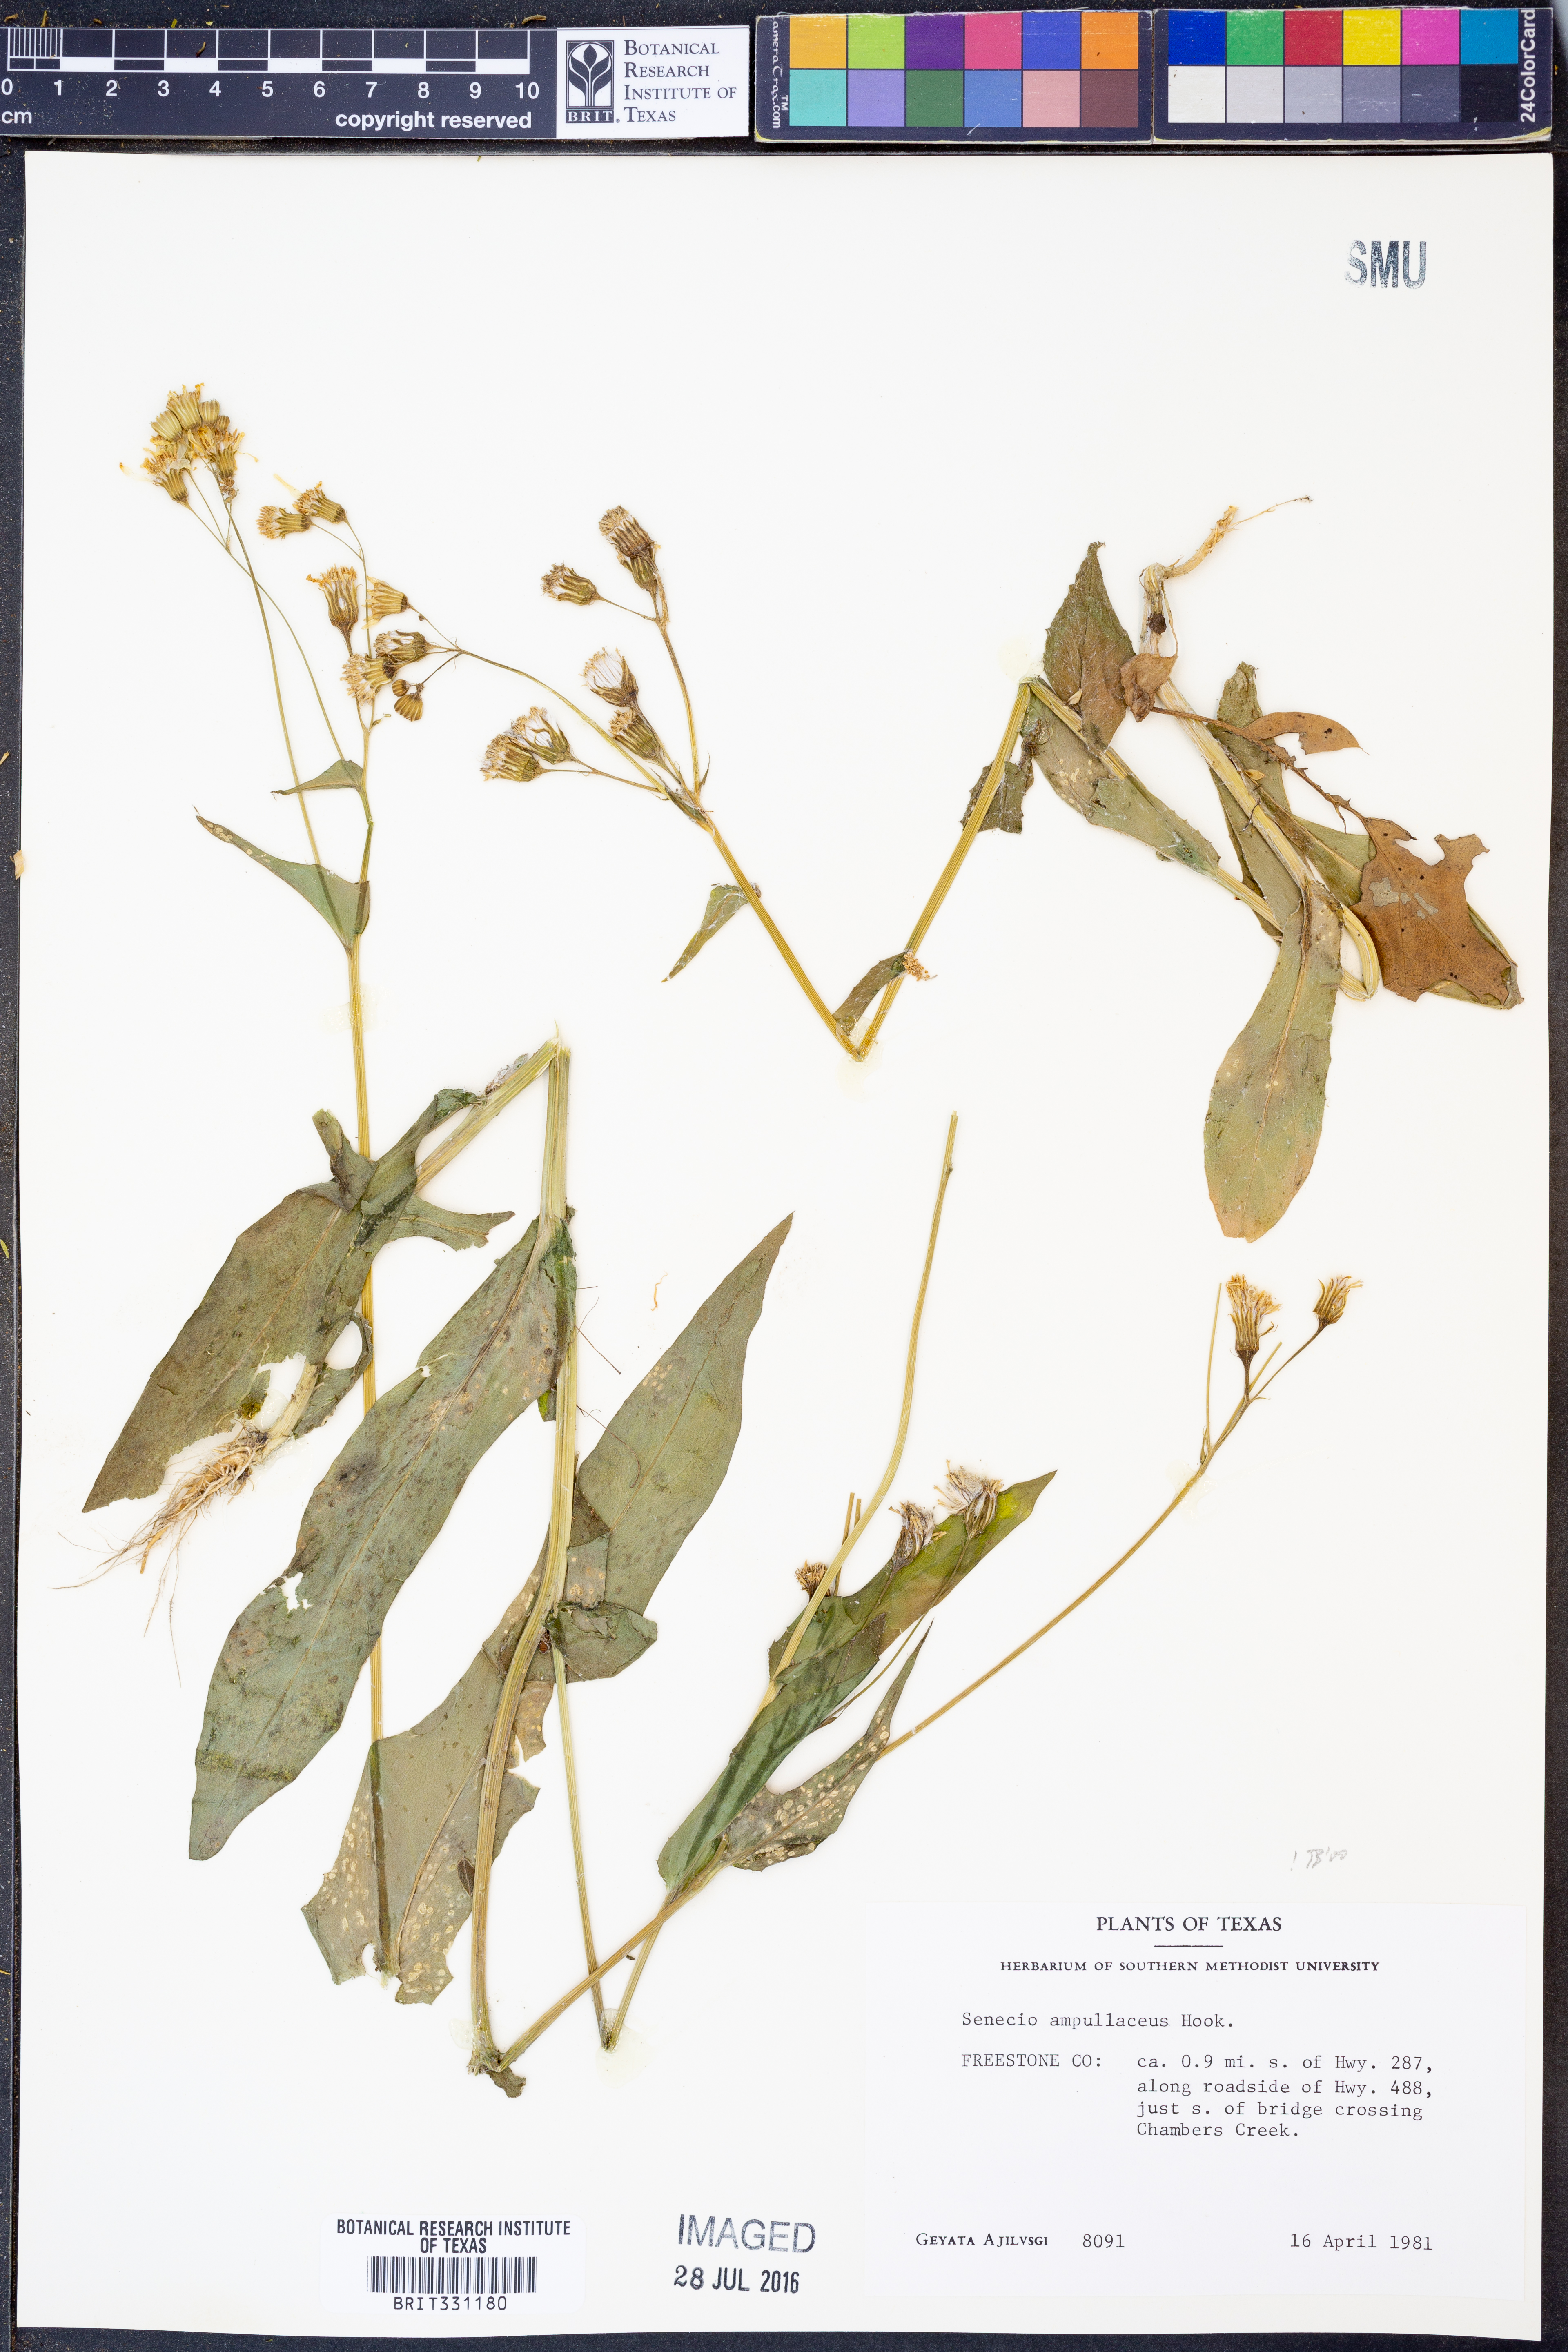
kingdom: Plantae
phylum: Tracheophyta
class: Magnoliopsida
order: Asterales
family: Asteraceae
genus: Senecio
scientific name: Senecio ampullaceus
